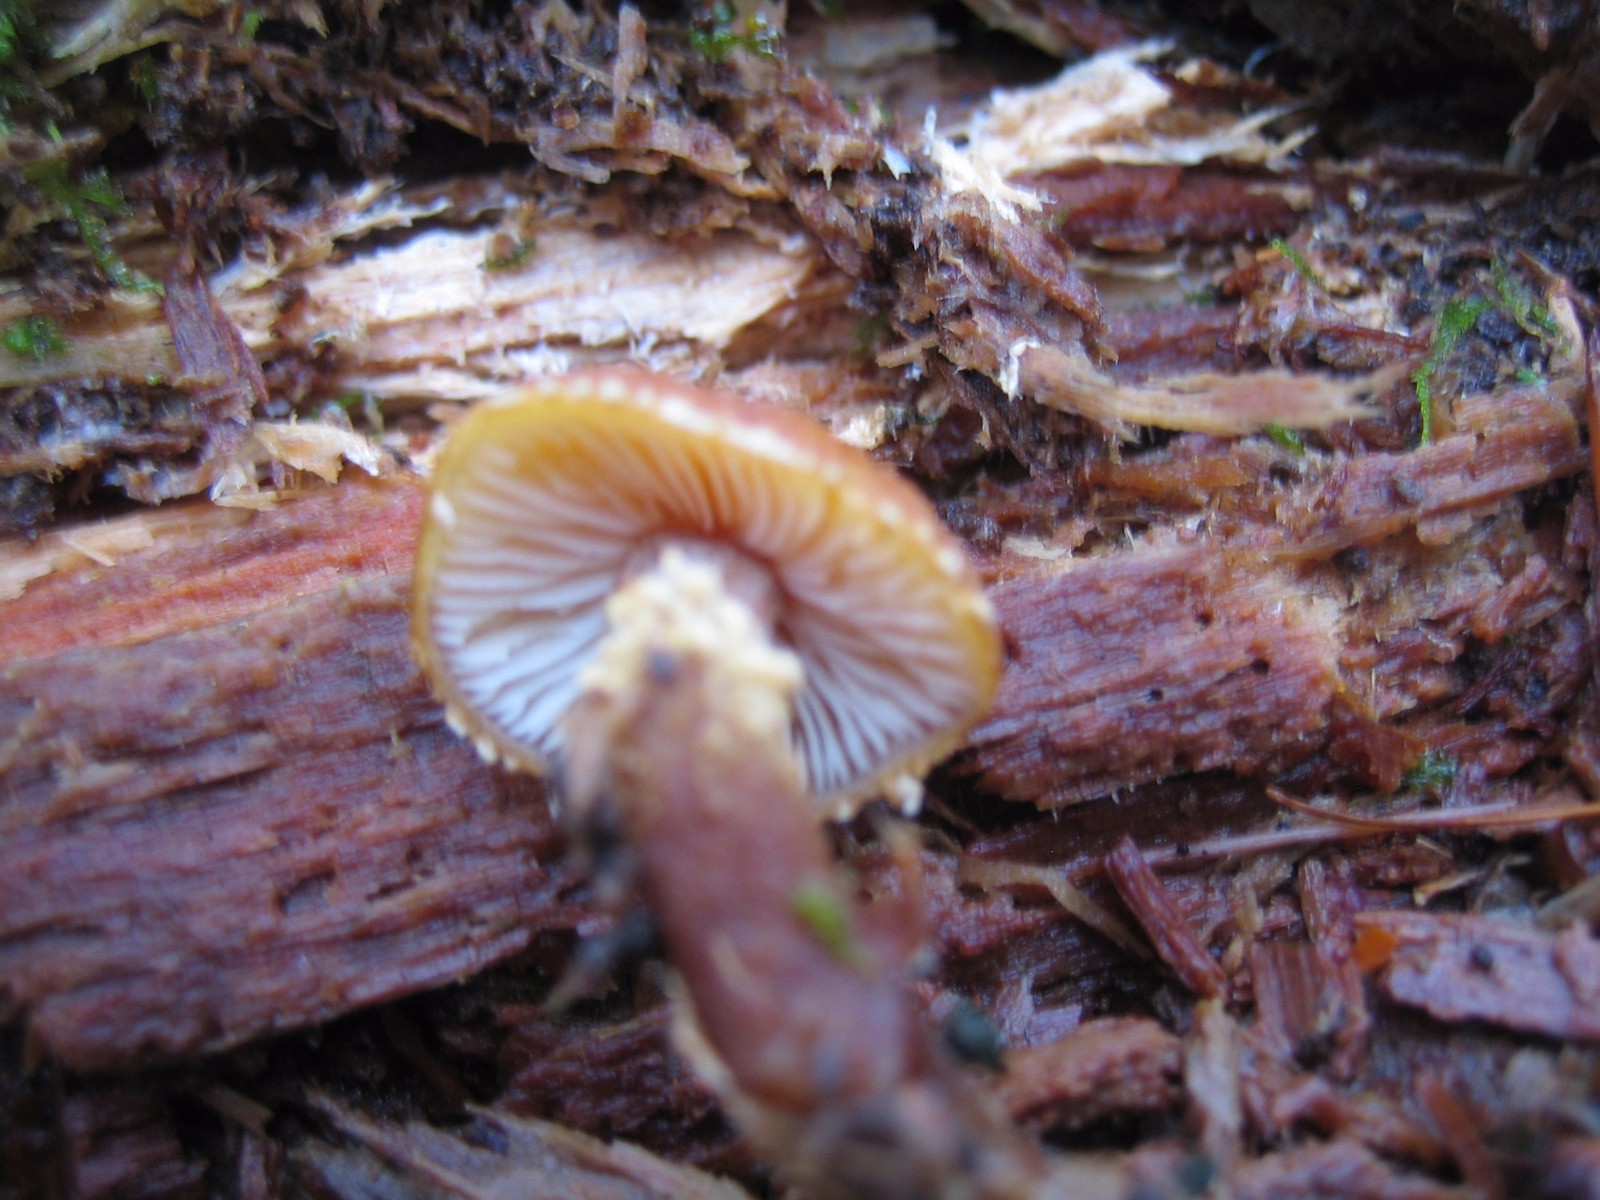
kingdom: Fungi
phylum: Basidiomycota
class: Agaricomycetes
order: Agaricales
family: Tricholomataceae
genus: Cystoderma
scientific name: Cystoderma
